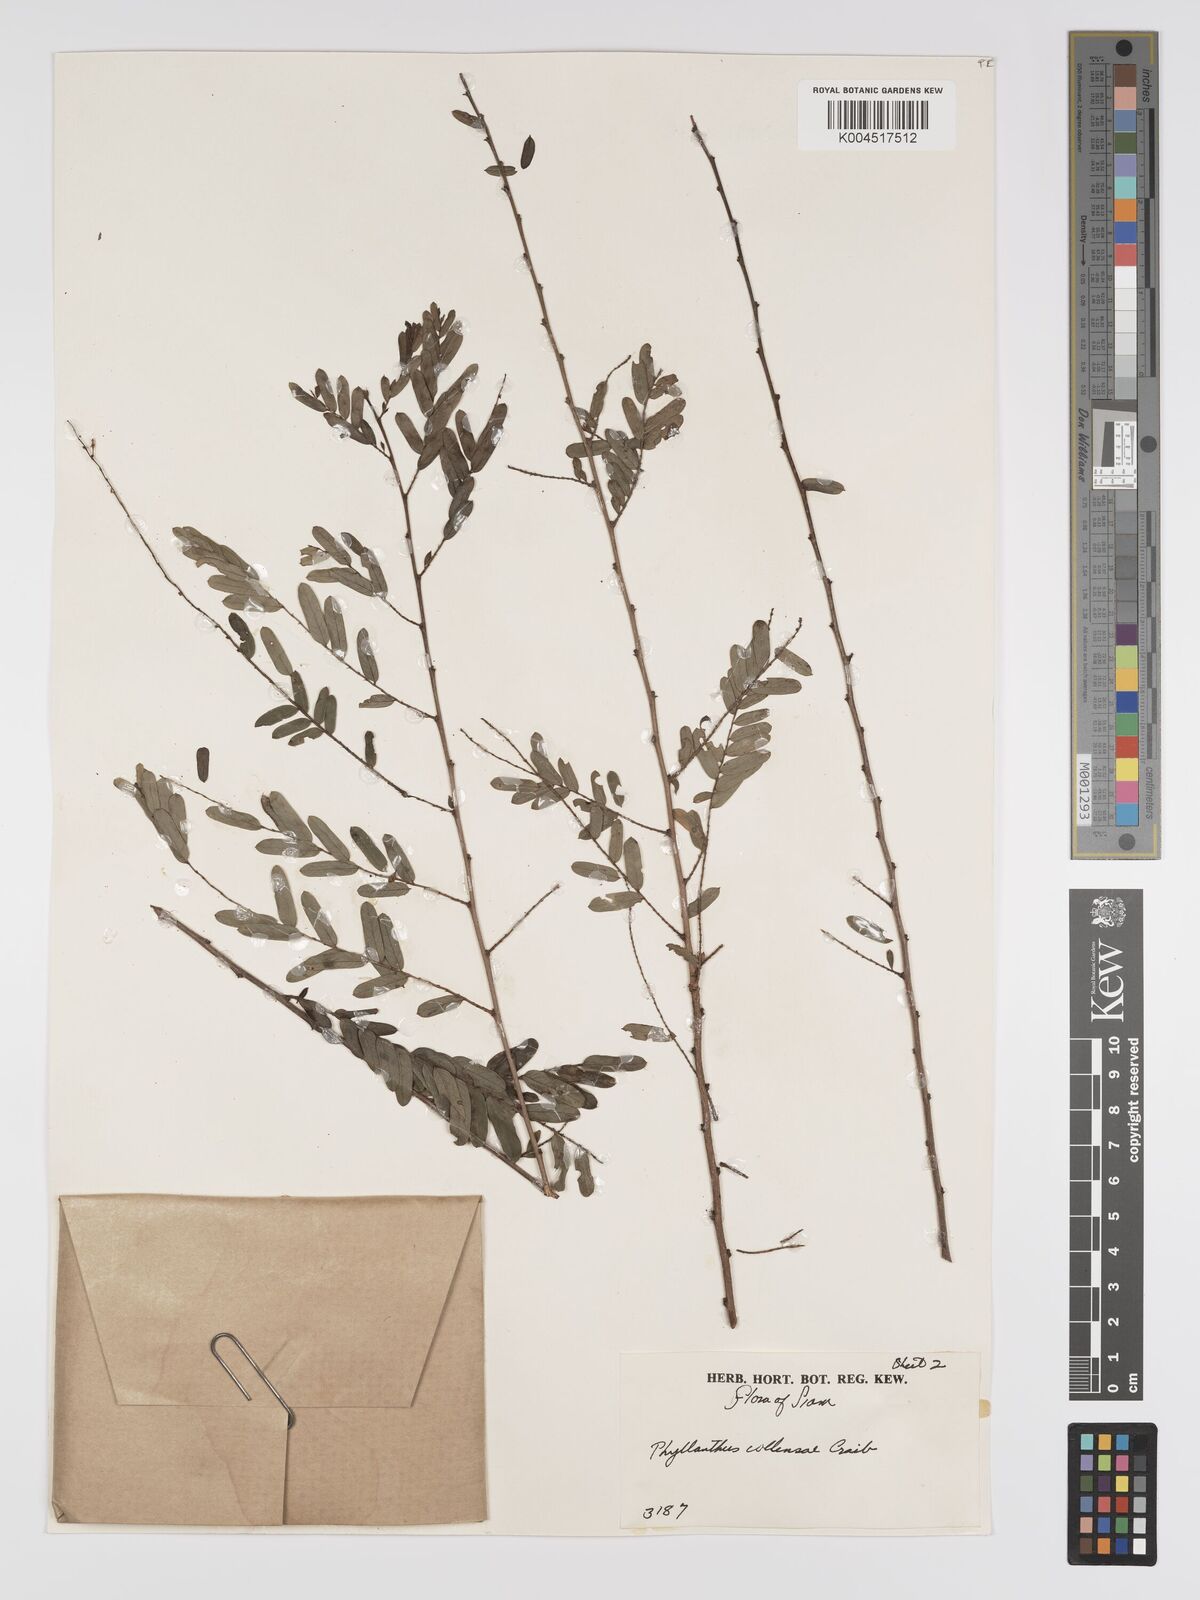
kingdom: Plantae
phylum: Tracheophyta
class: Magnoliopsida
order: Malpighiales
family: Phyllanthaceae
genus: Phyllanthus
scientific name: Phyllanthus collinsiae
